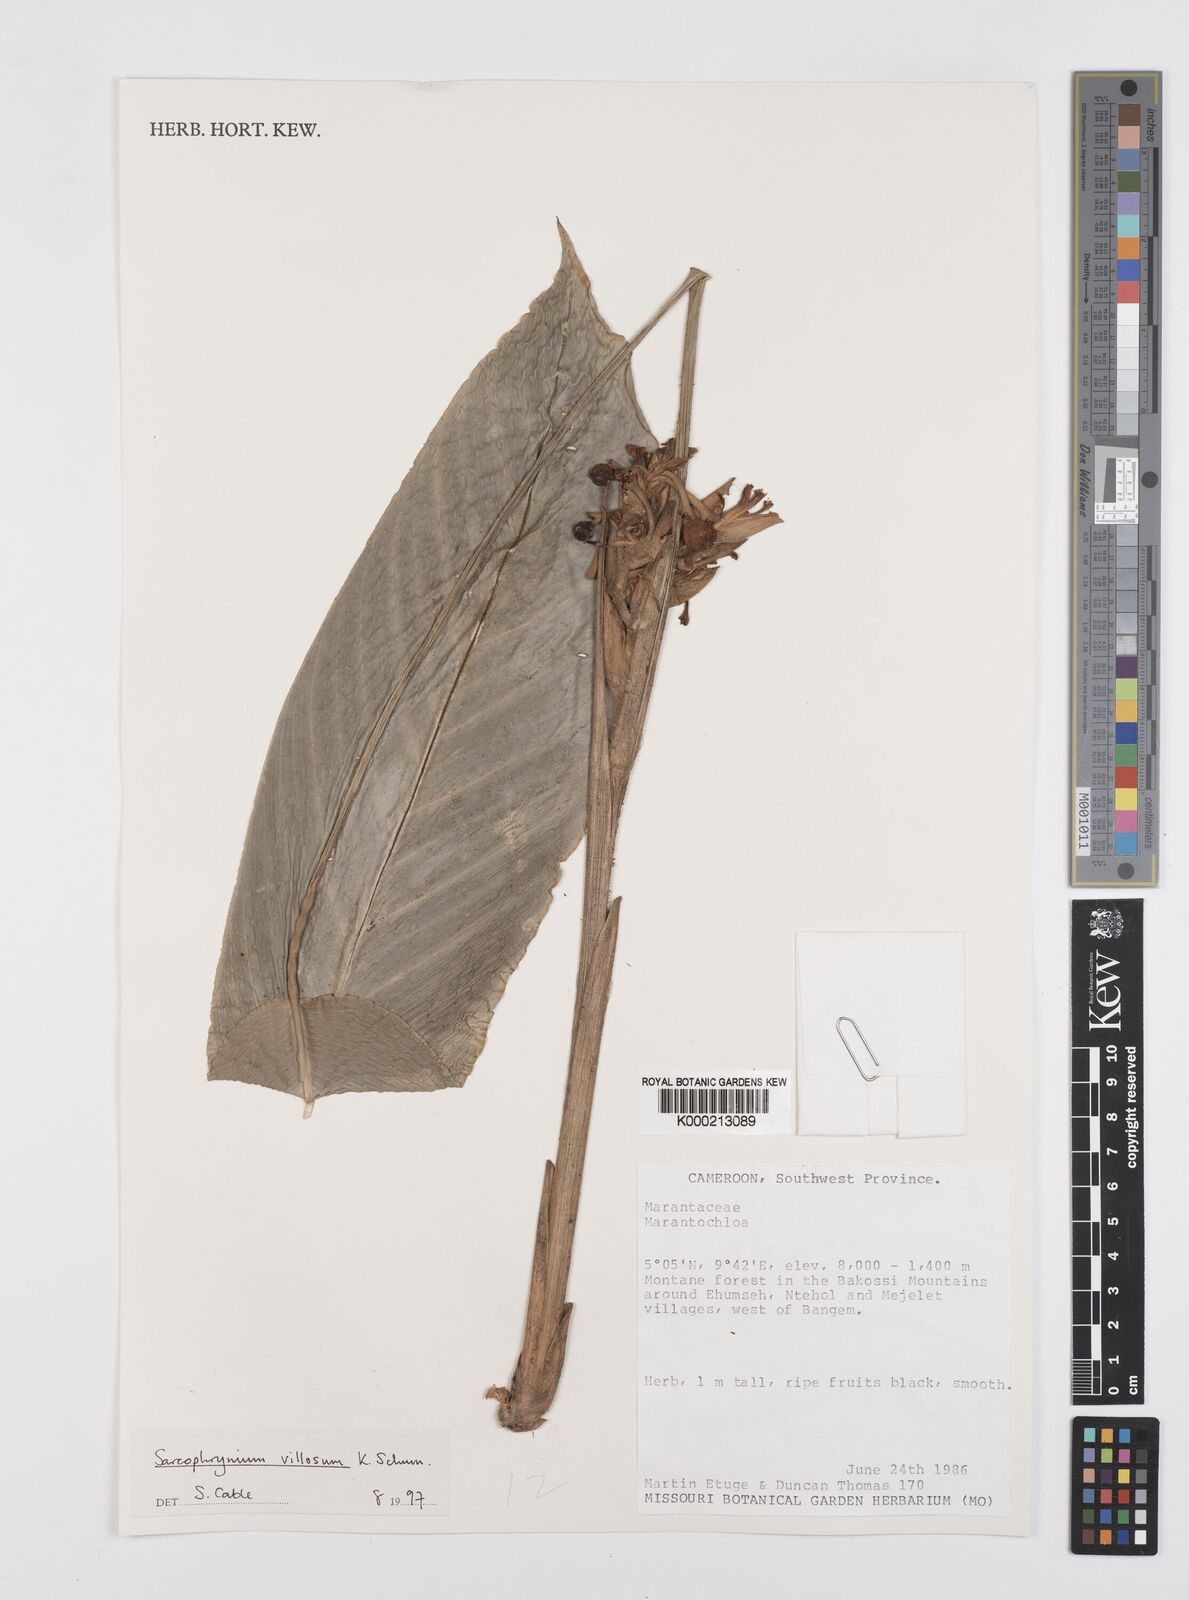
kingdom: Plantae
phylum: Tracheophyta
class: Liliopsida
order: Zingiberales
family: Marantaceae
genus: Sarcophrynium
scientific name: Sarcophrynium villosum
